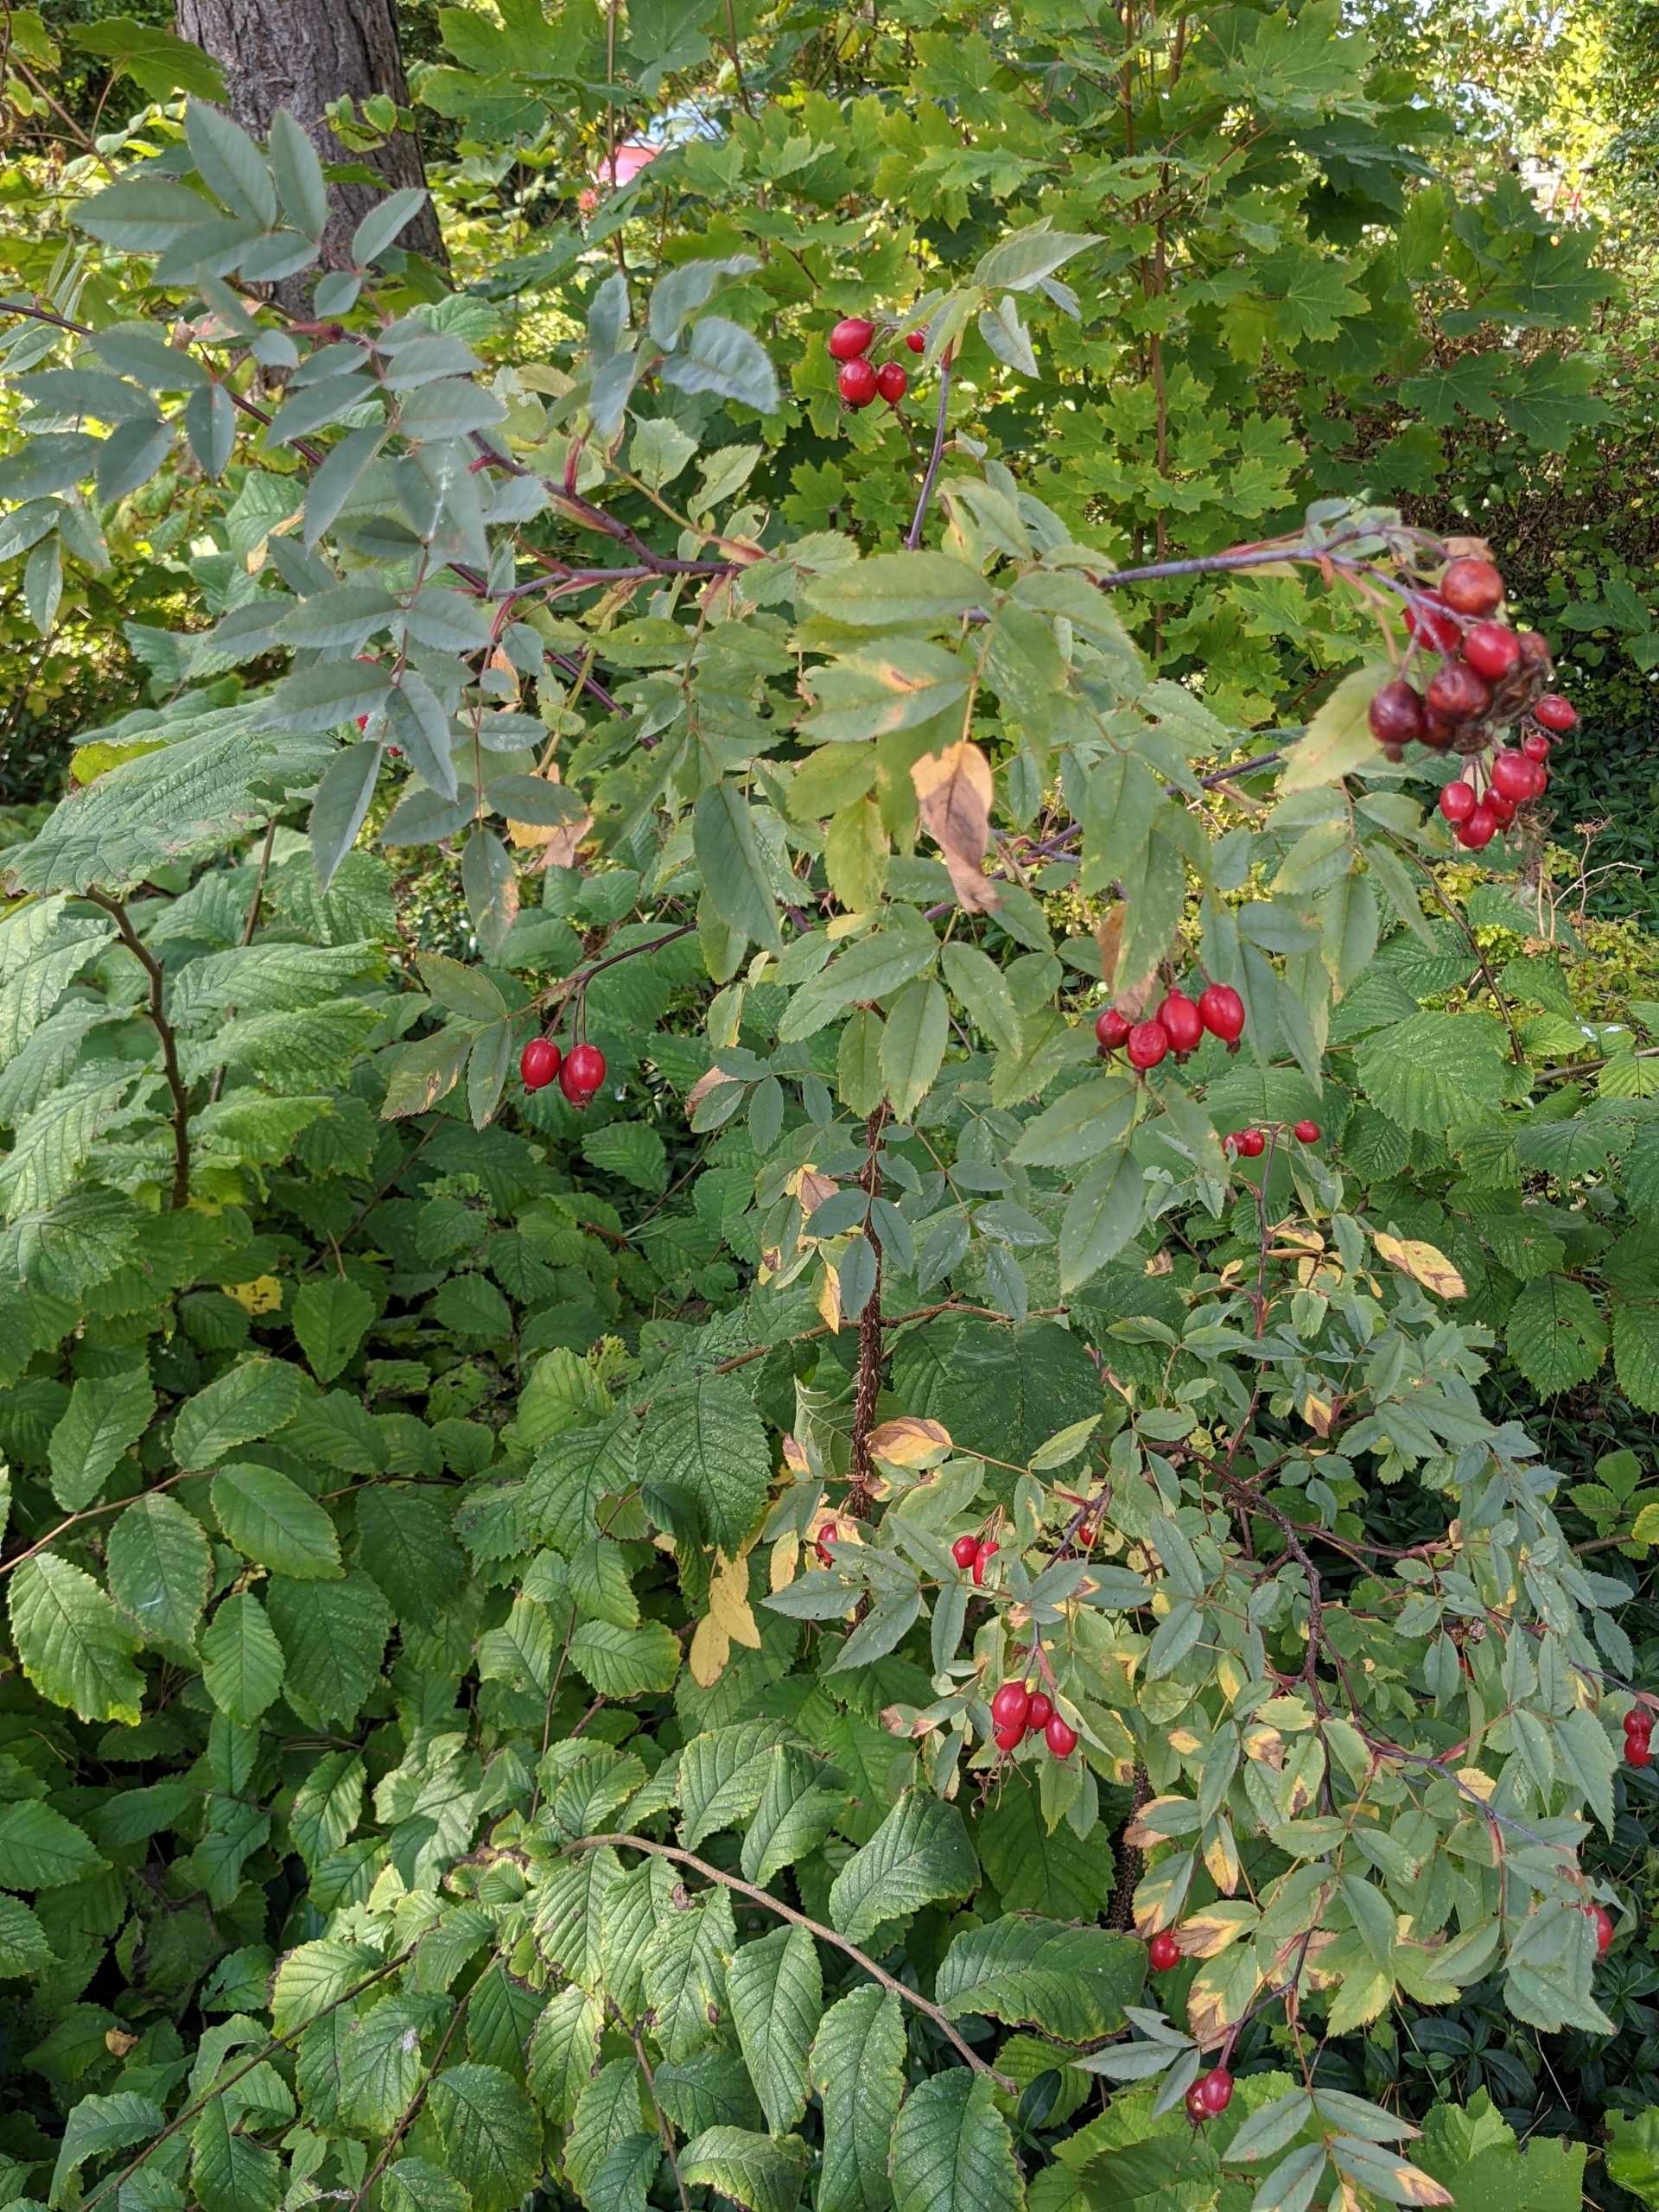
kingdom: Plantae
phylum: Tracheophyta
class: Magnoliopsida
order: Rosales
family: Rosaceae
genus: Rosa
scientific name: Rosa glauca
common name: Kobber-rose
